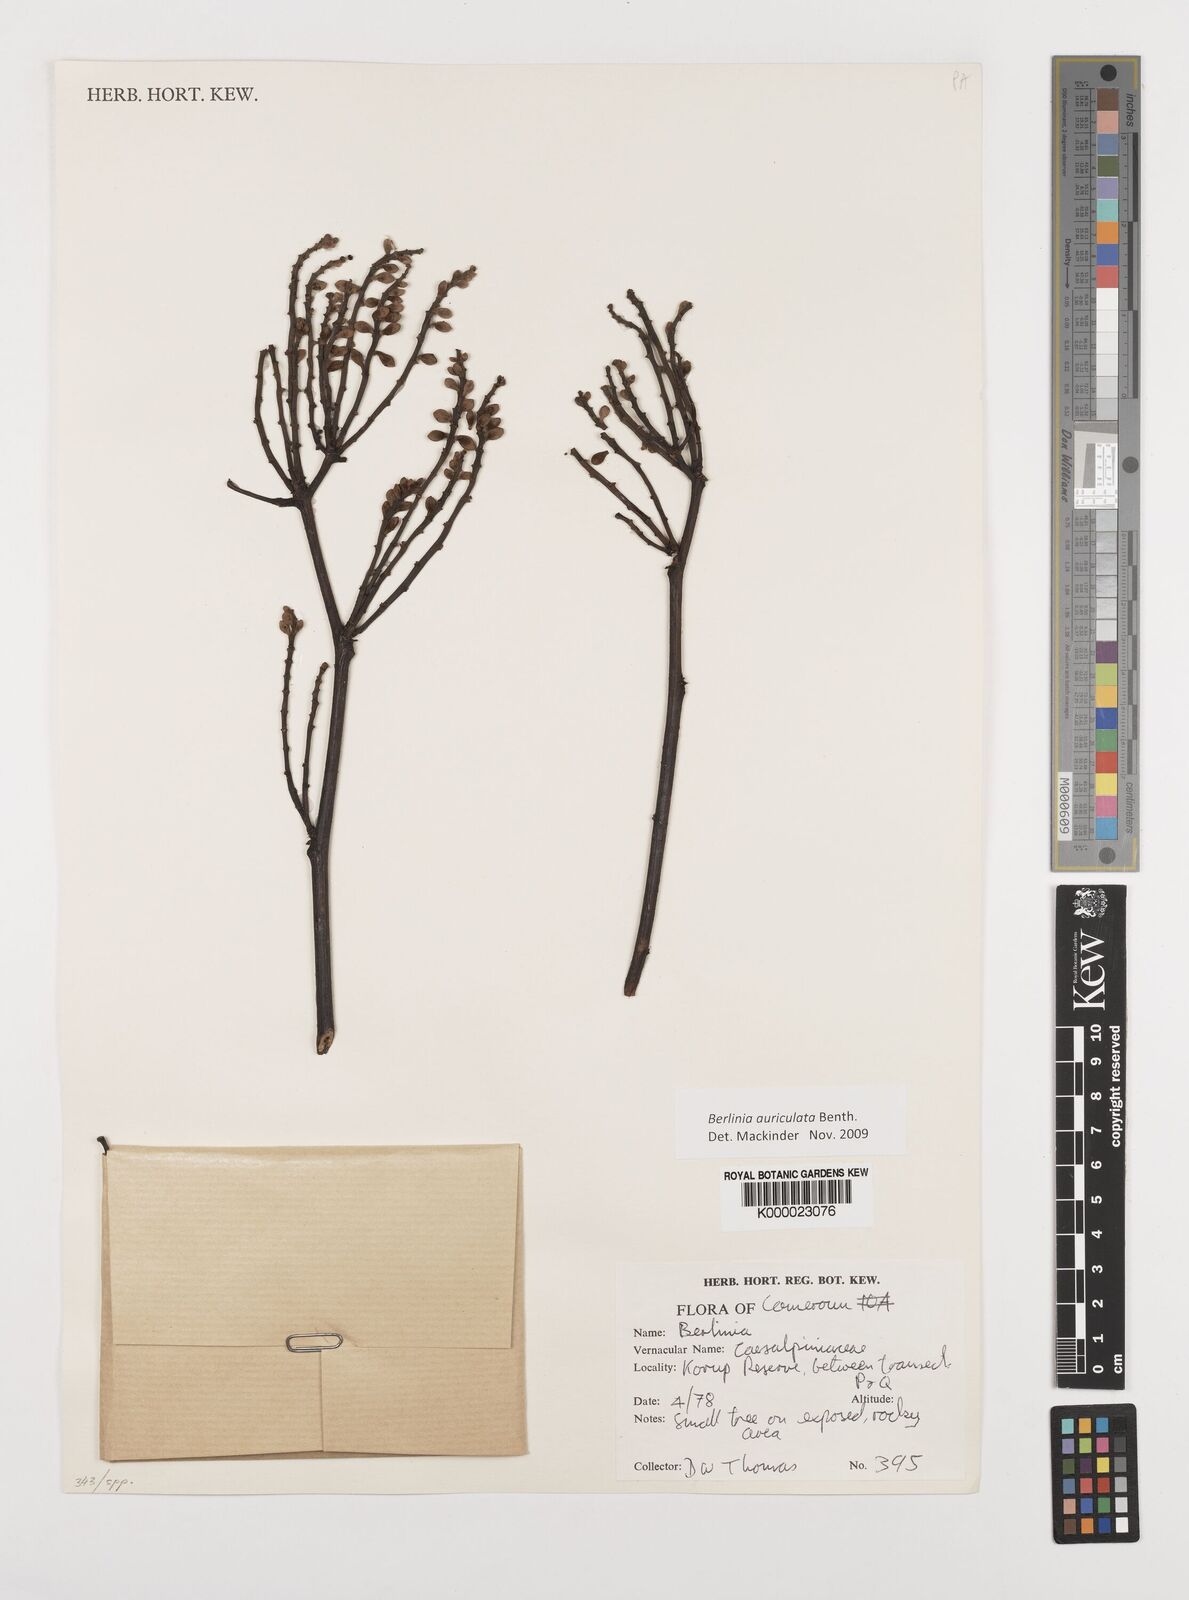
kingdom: Plantae
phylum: Tracheophyta
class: Magnoliopsida
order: Fabales
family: Fabaceae
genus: Berlinia
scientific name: Berlinia auriculata
